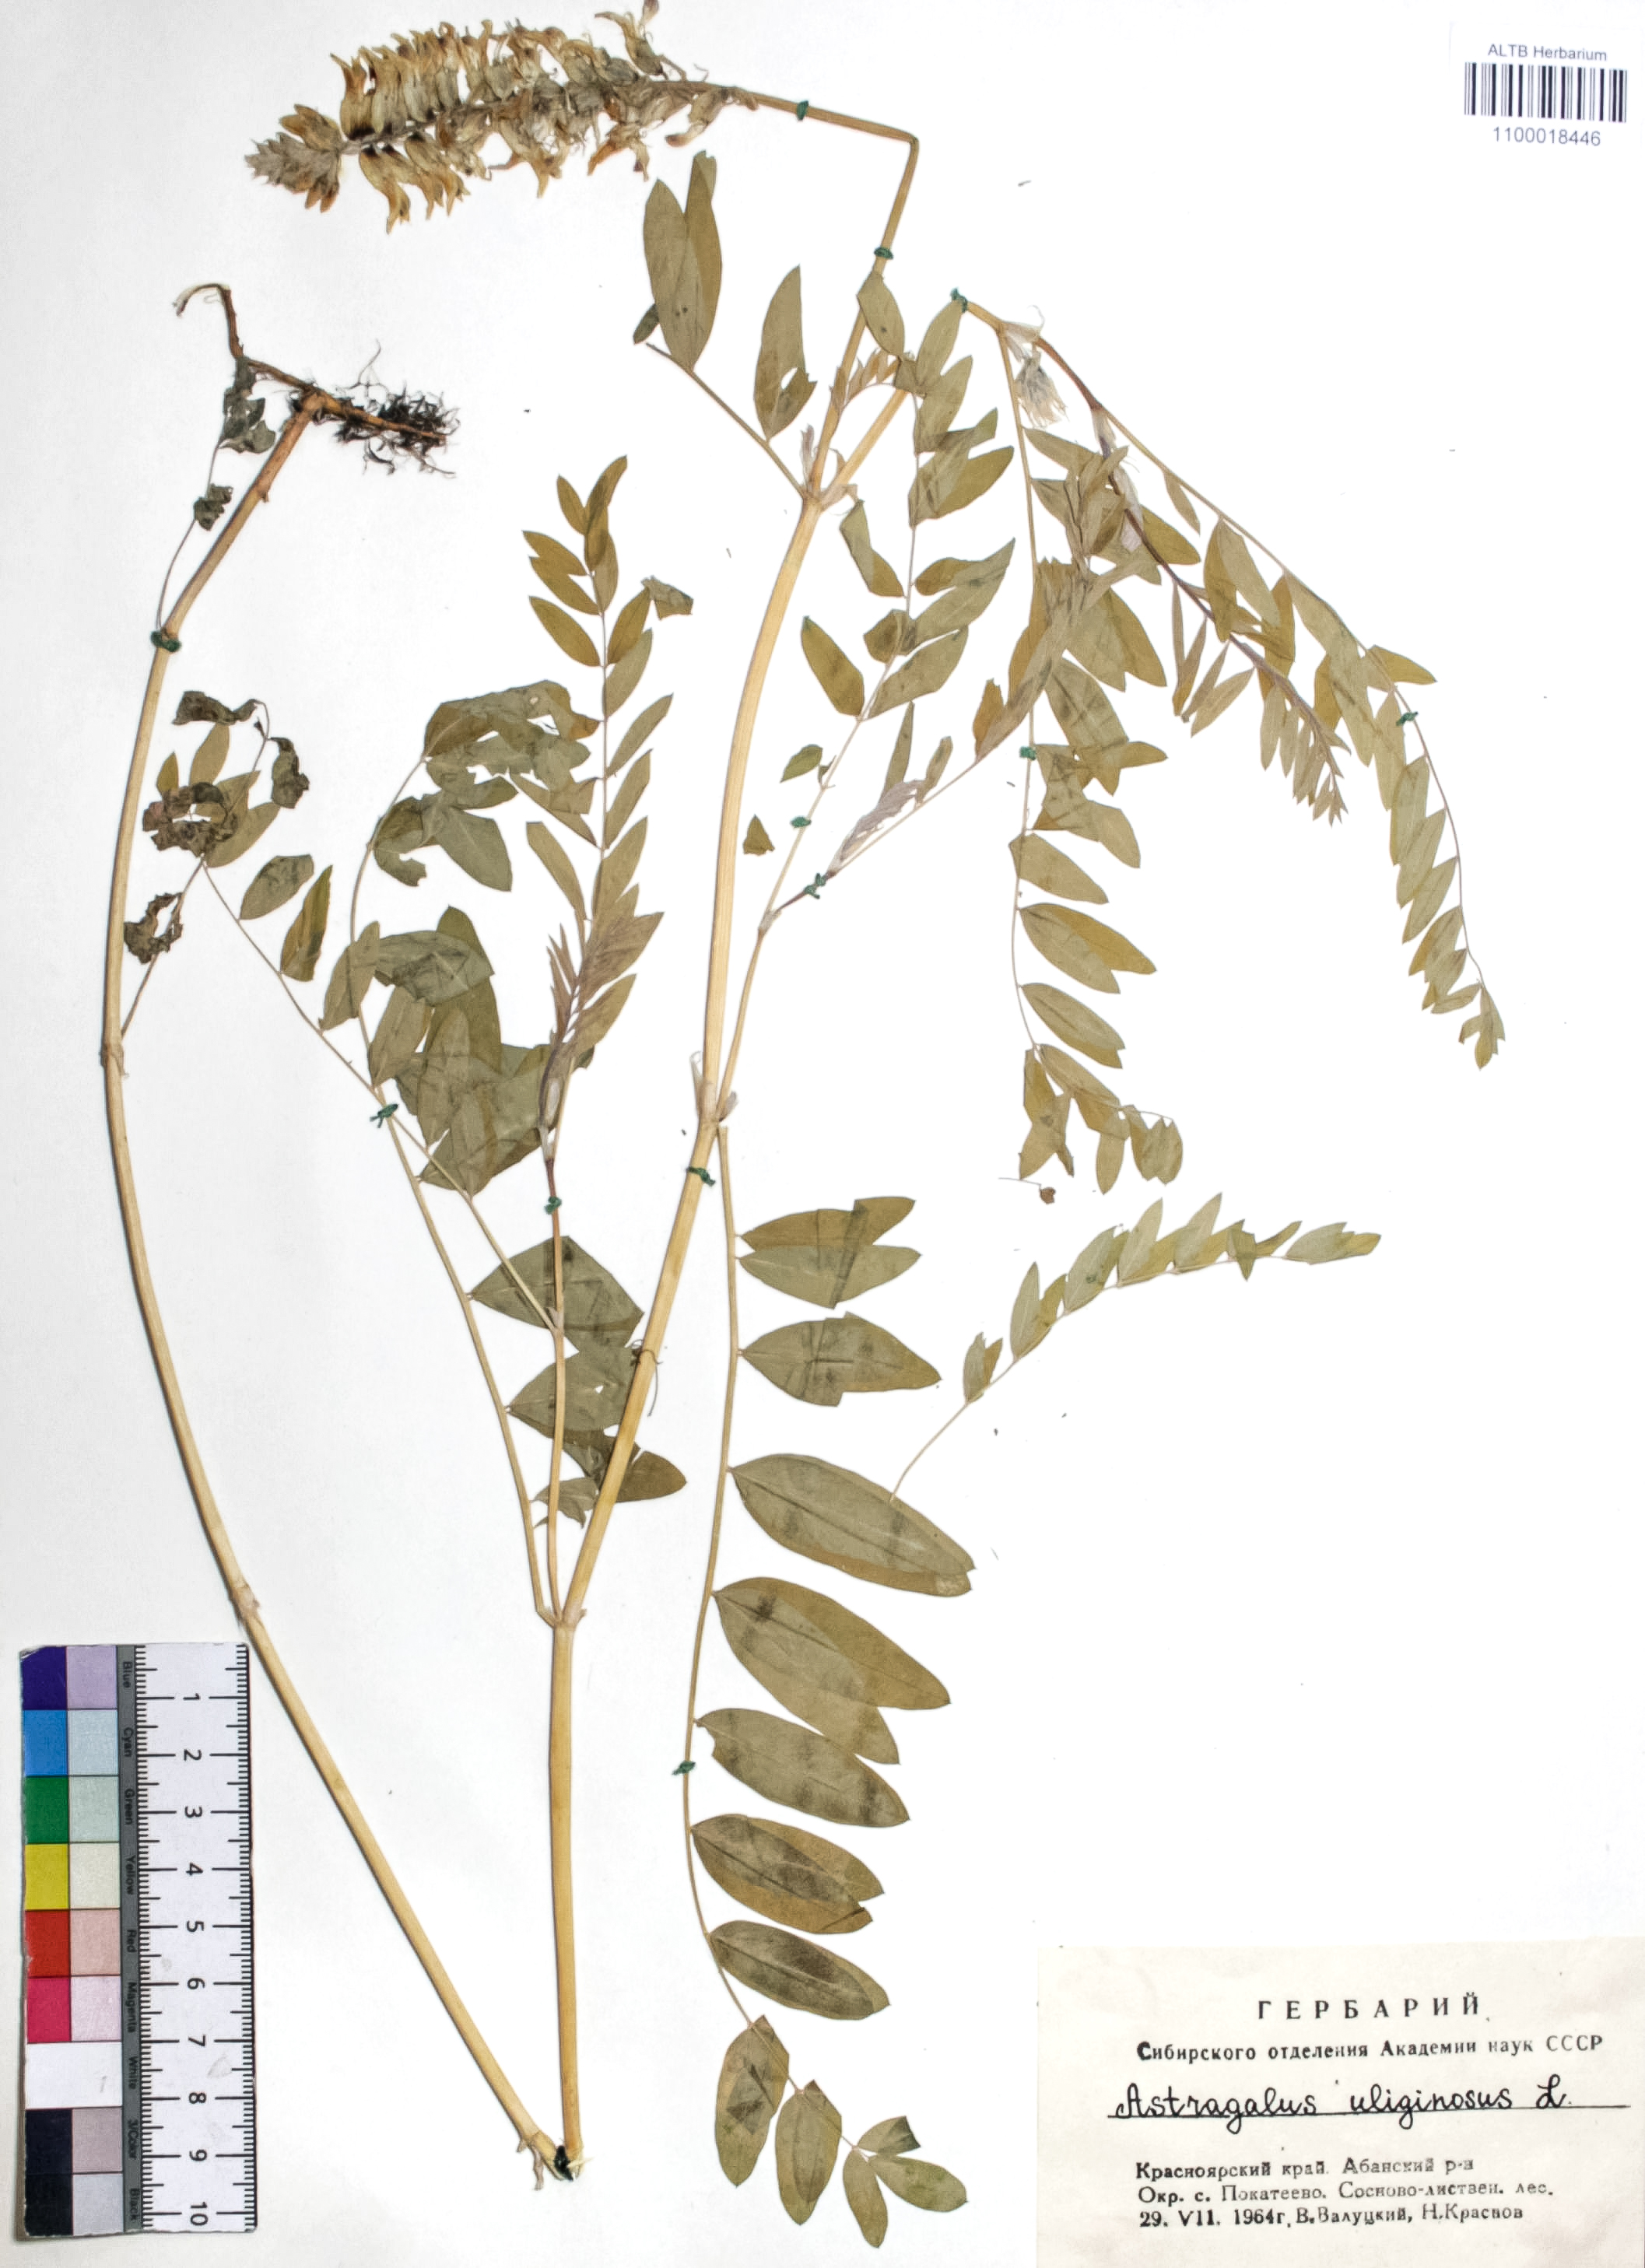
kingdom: Plantae
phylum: Tracheophyta
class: Magnoliopsida
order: Fabales
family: Fabaceae
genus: Astragalus
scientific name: Astragalus uliginosus
